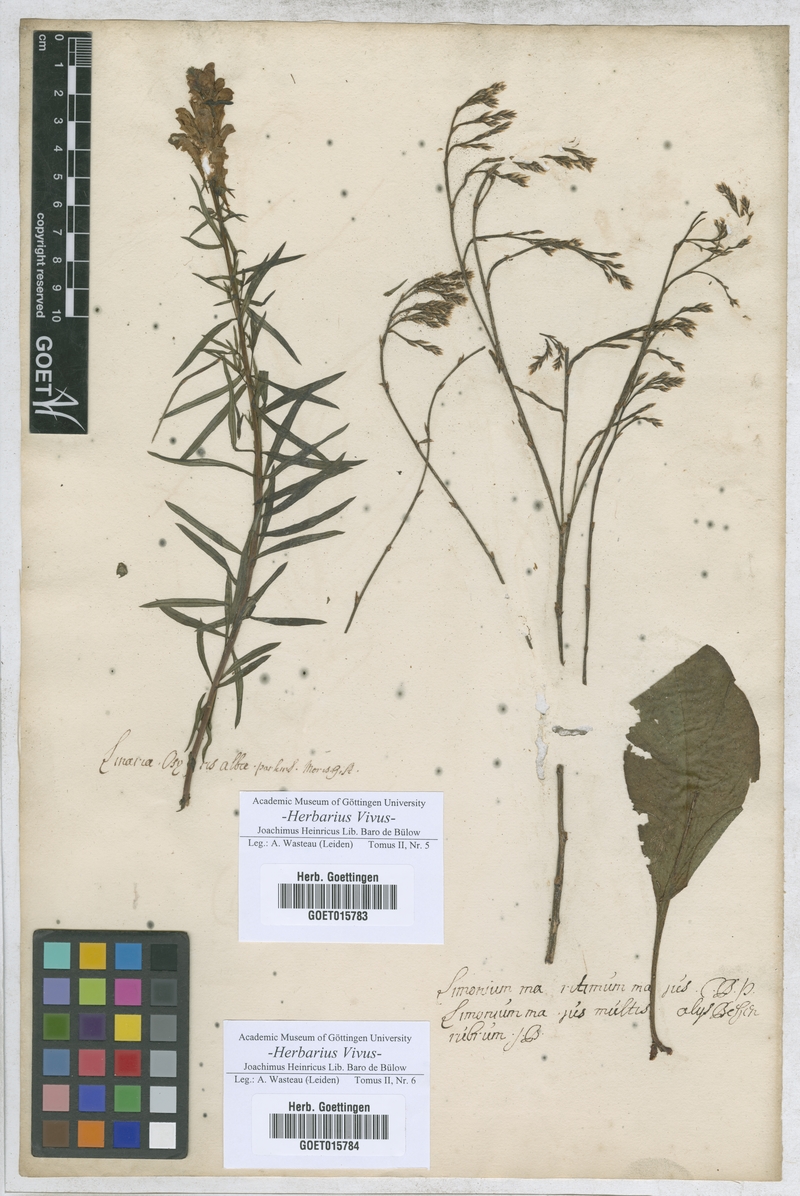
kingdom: Plantae
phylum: Tracheophyta
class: Magnoliopsida
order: Lamiales
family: Plantaginaceae
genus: Linaria
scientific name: Linaria
